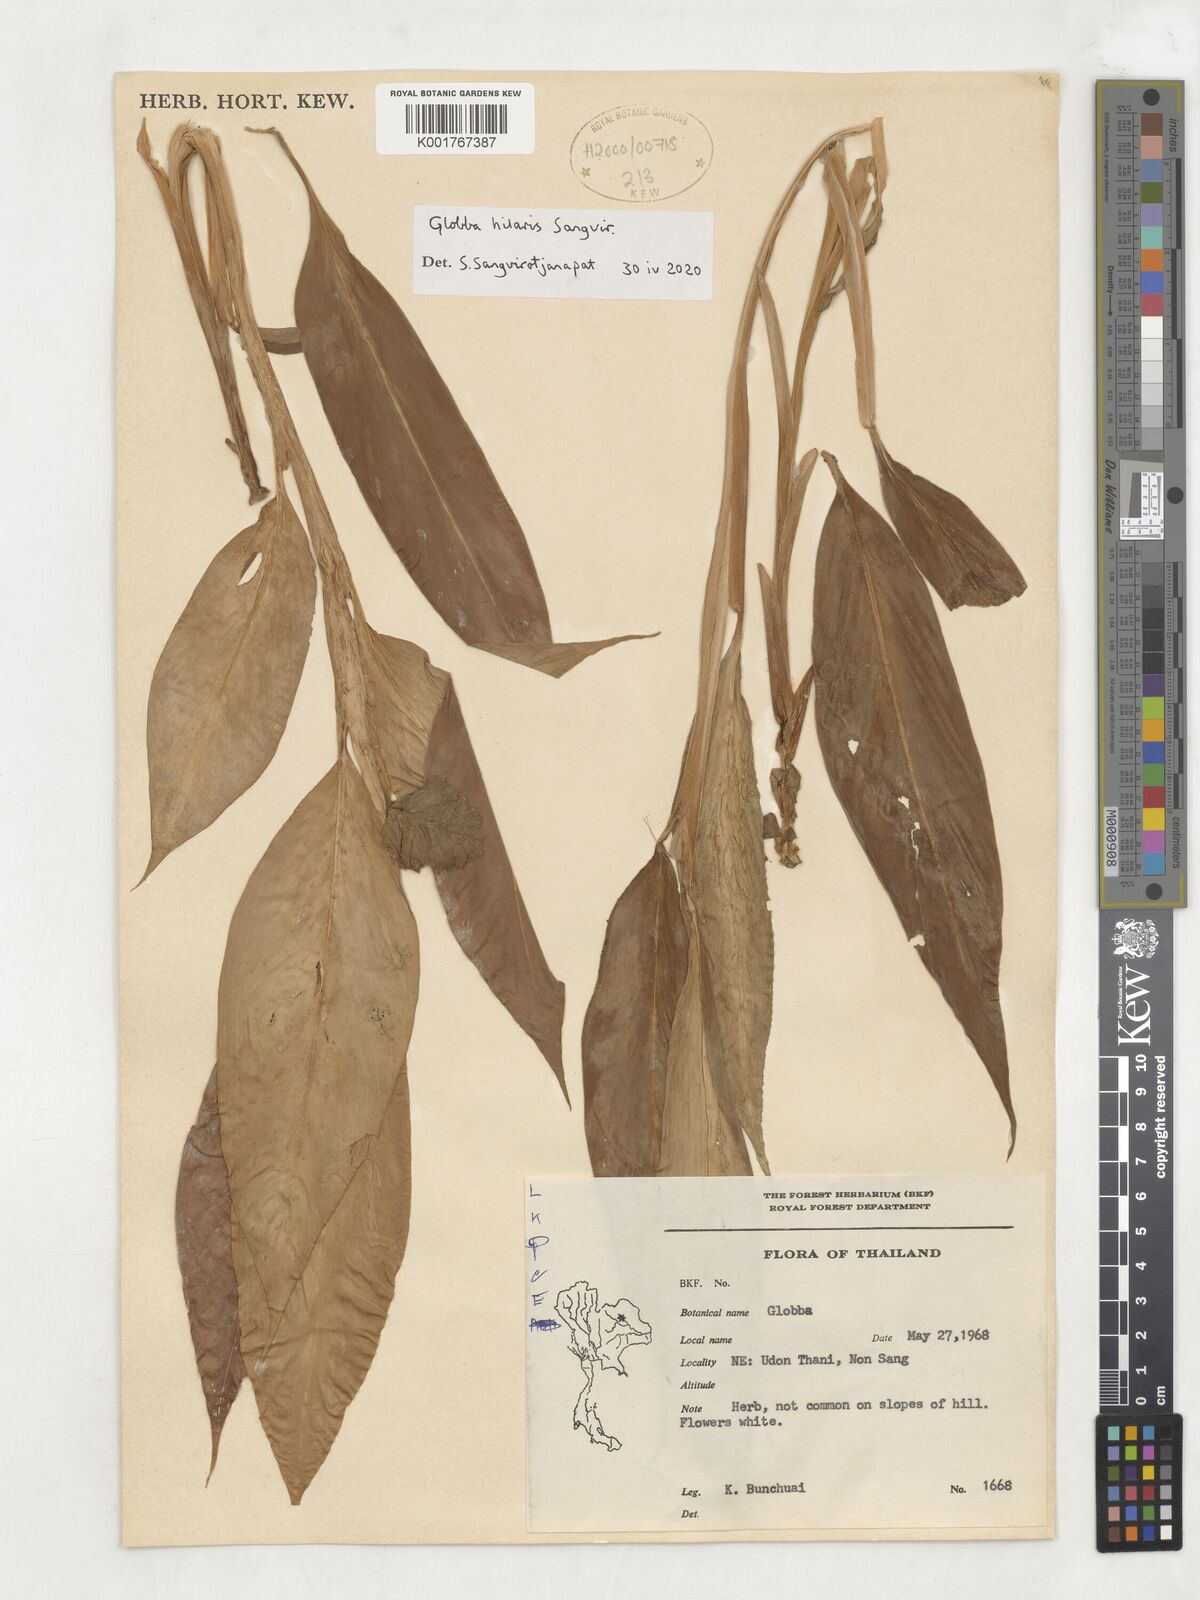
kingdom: Plantae
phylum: Tracheophyta
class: Liliopsida
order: Zingiberales
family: Zingiberaceae
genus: Globba
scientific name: Globba
